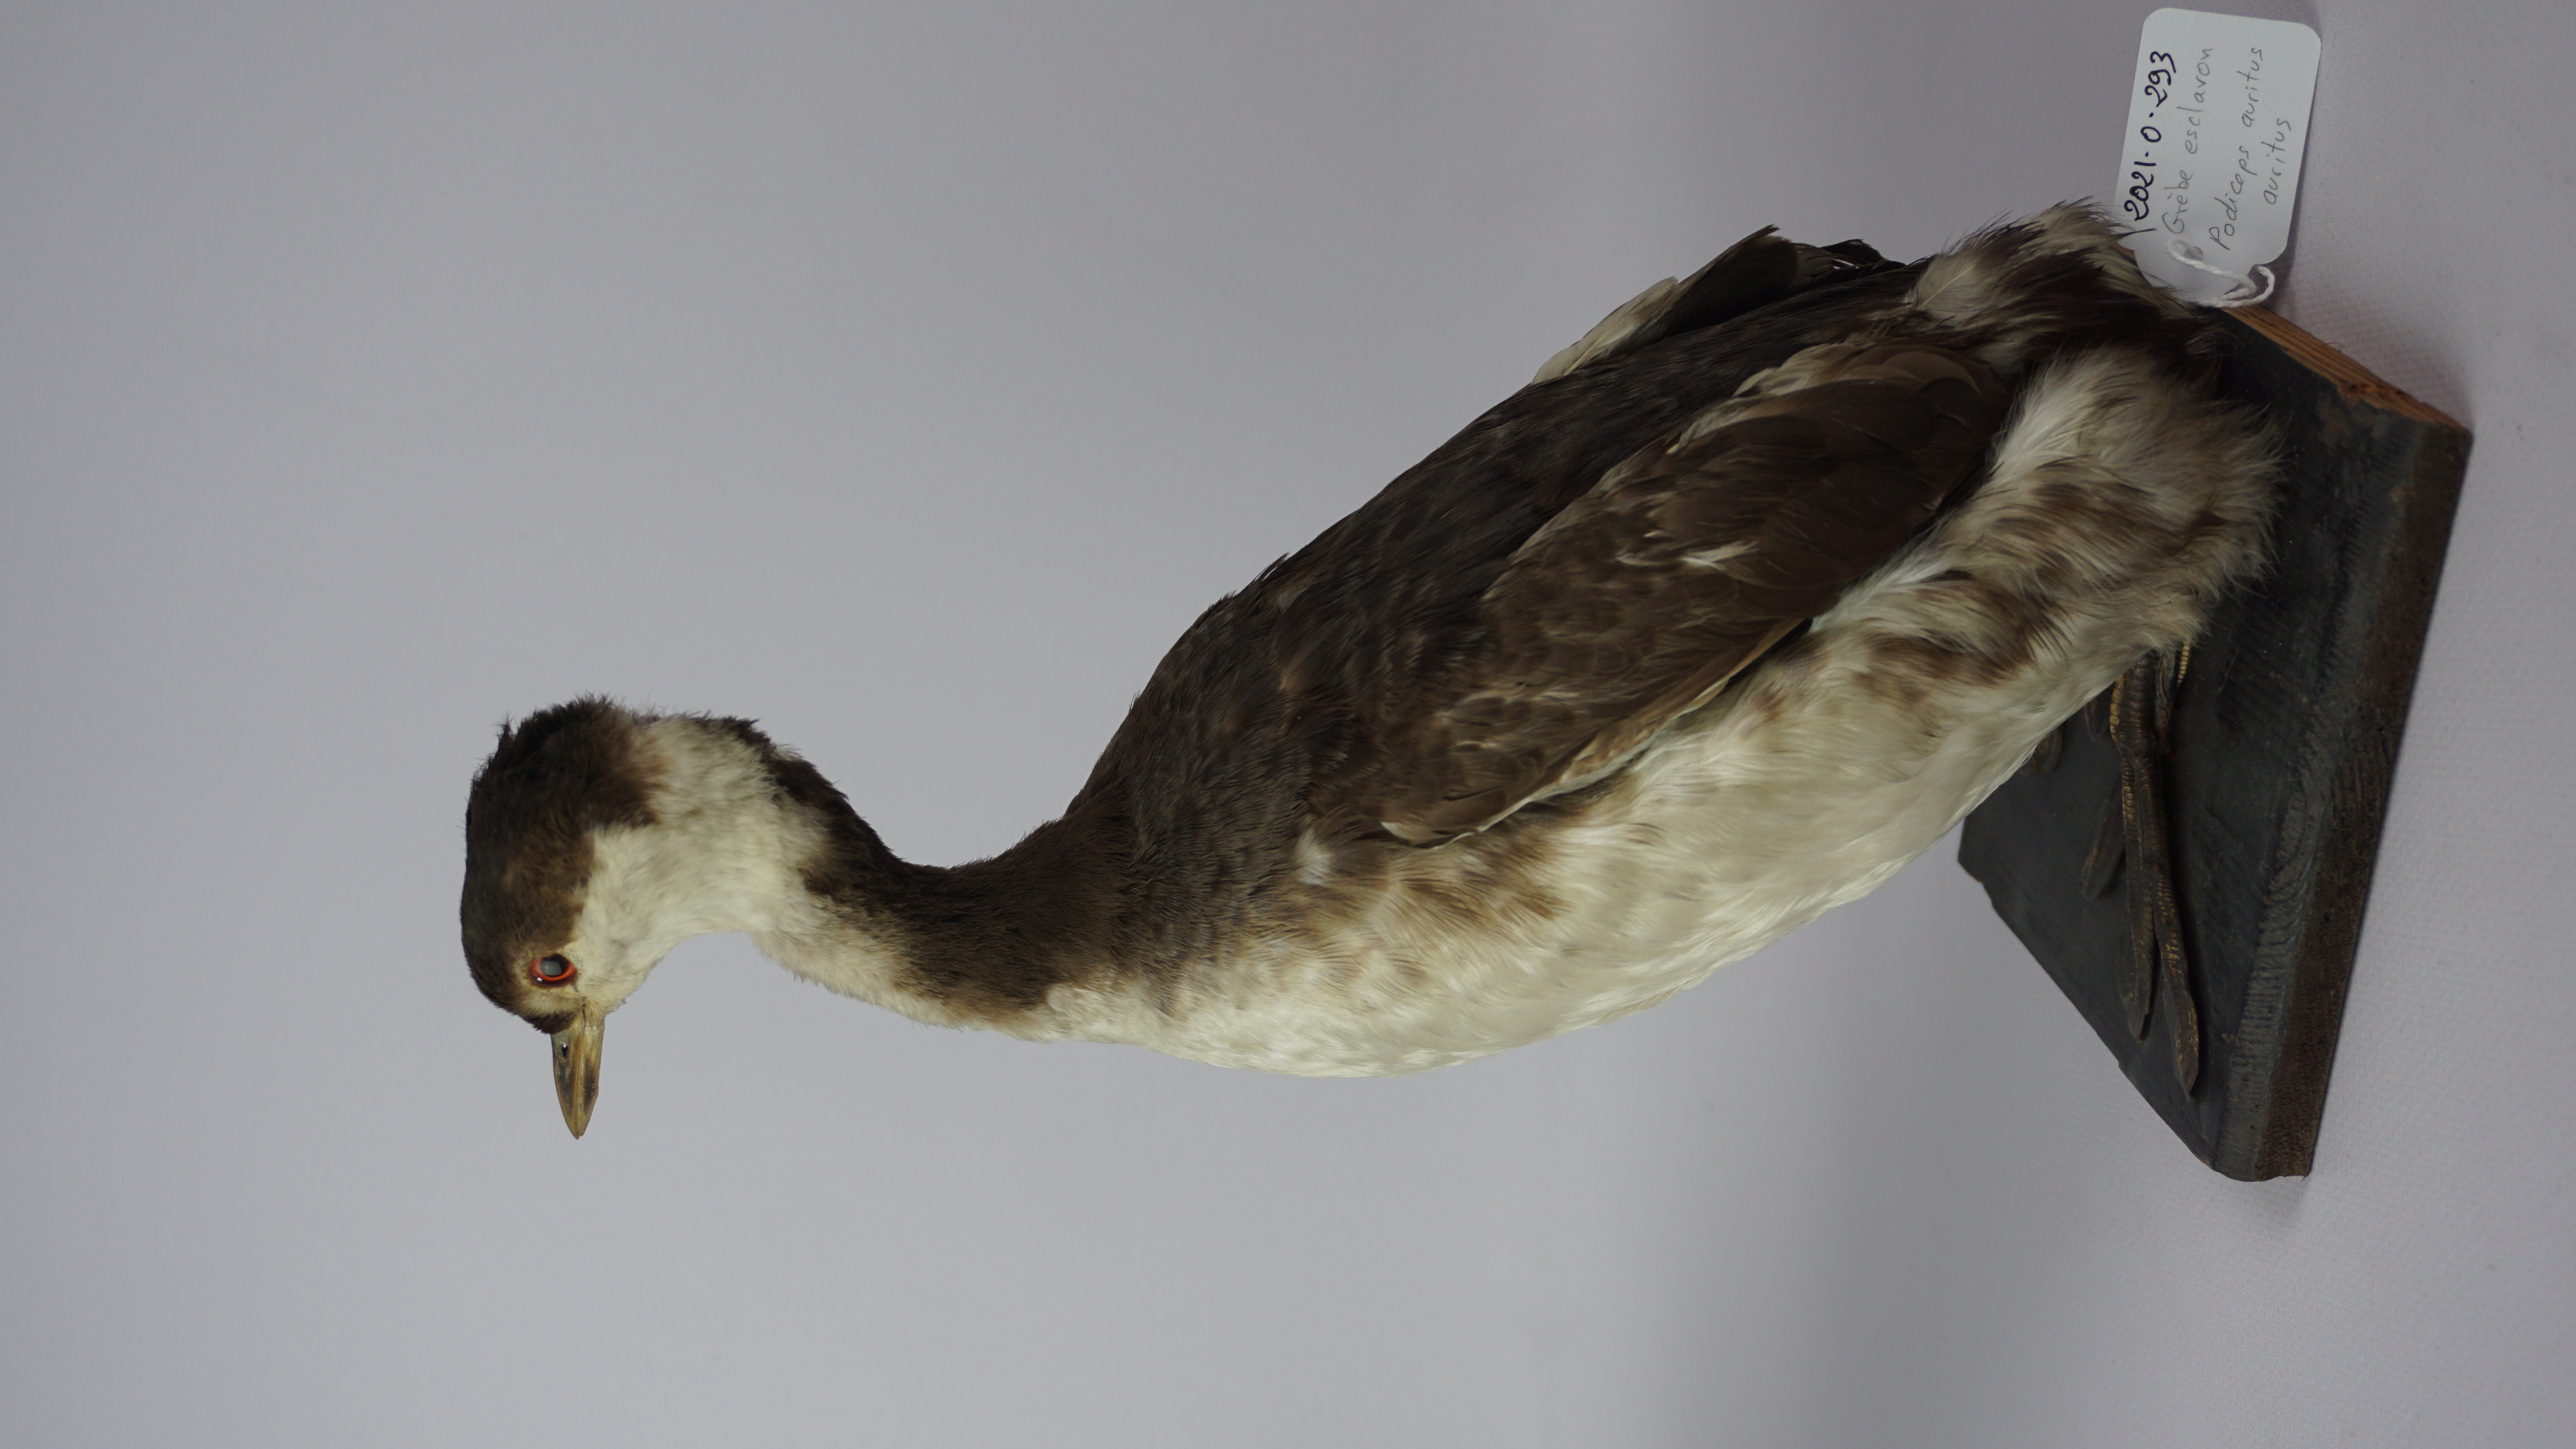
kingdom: Animalia
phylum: Chordata
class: Aves
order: Podicipediformes
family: Podicipedidae
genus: Podiceps
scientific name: Podiceps auritus
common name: Horned grebe
